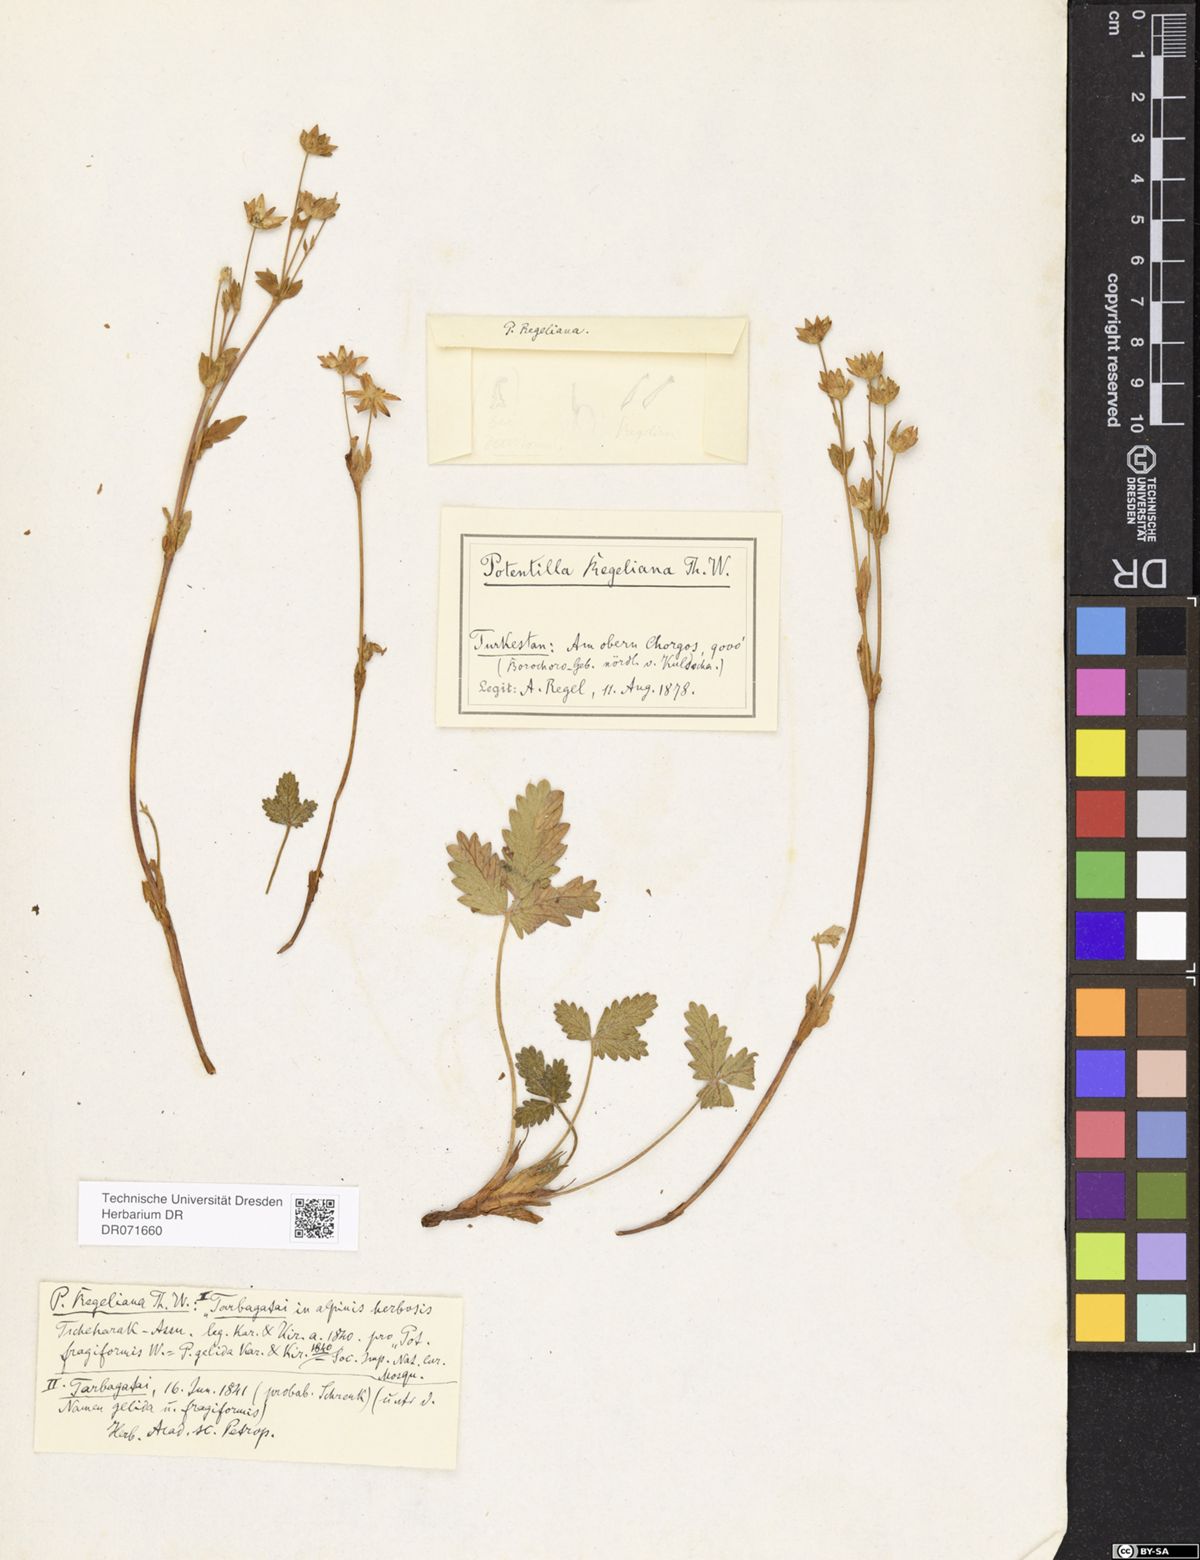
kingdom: Plantae
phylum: Tracheophyta
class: Magnoliopsida
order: Rosales
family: Rosaceae
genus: Potentilla
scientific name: Potentilla evestita
